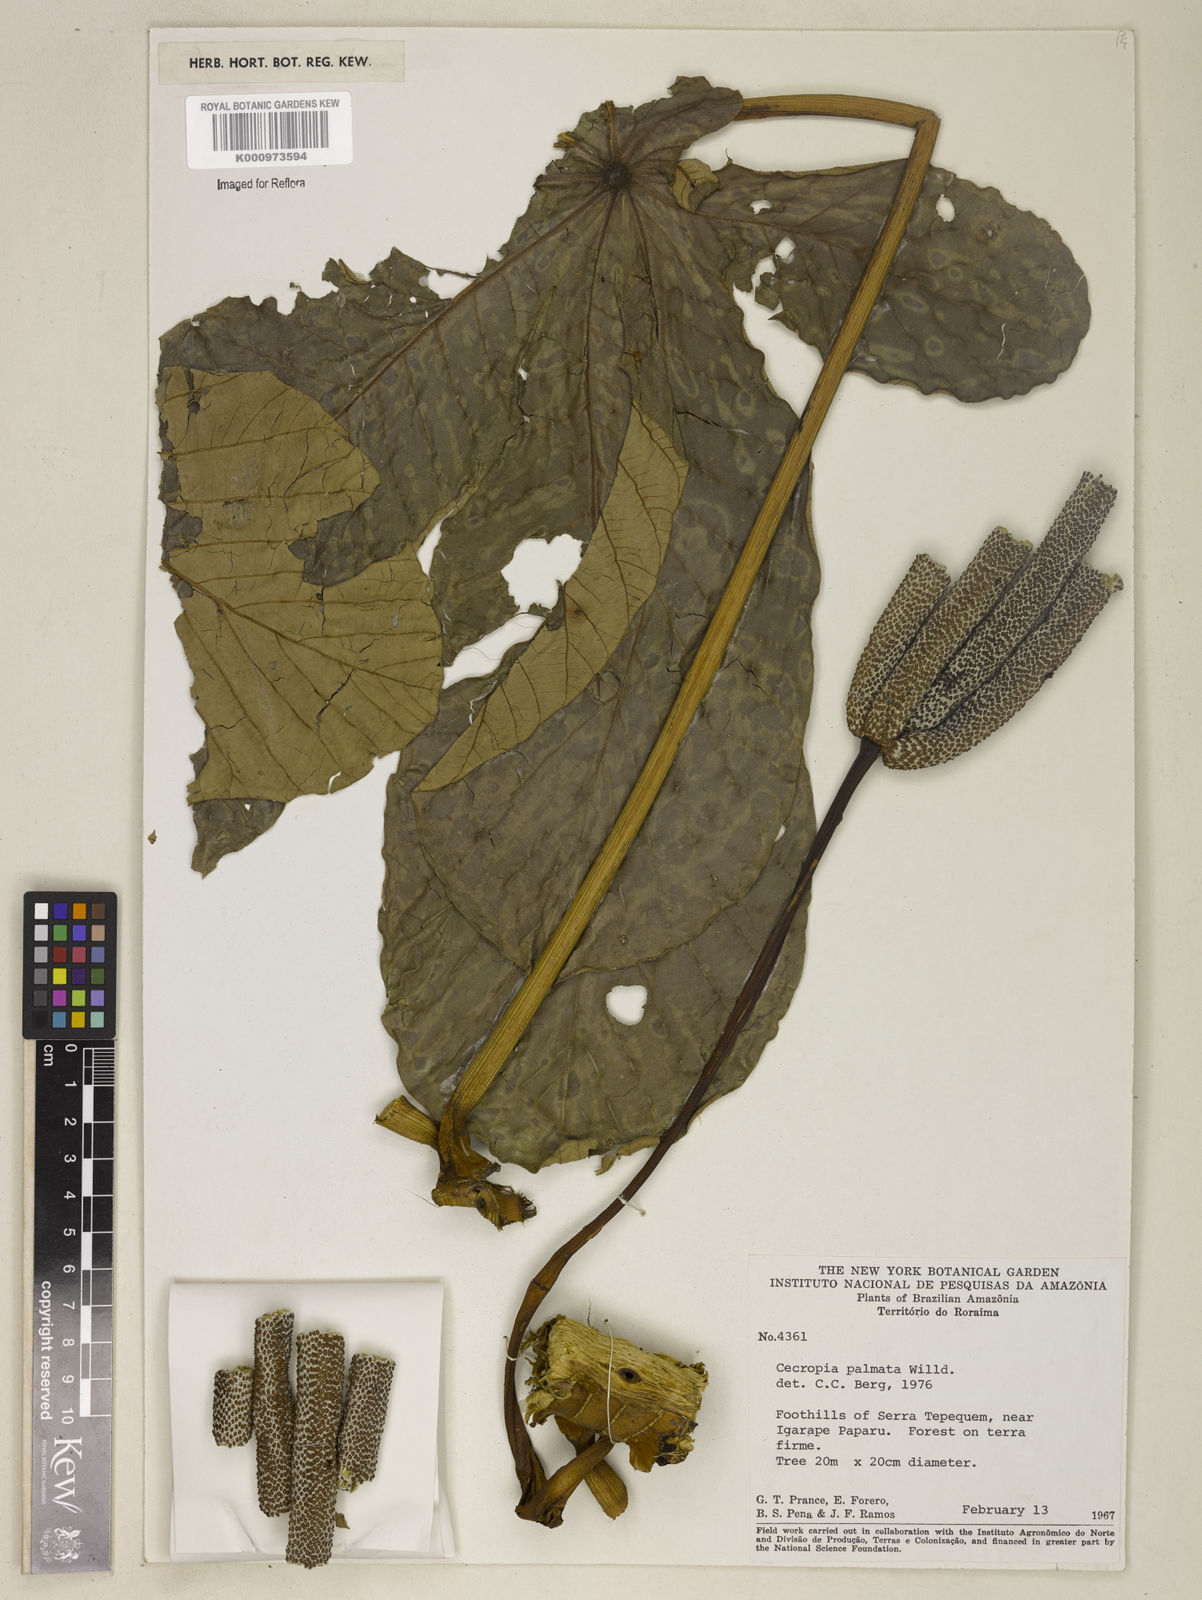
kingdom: Plantae
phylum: Tracheophyta
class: Magnoliopsida
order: Rosales
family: Urticaceae
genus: Cecropia
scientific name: Cecropia palmata
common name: Trumpet tree
